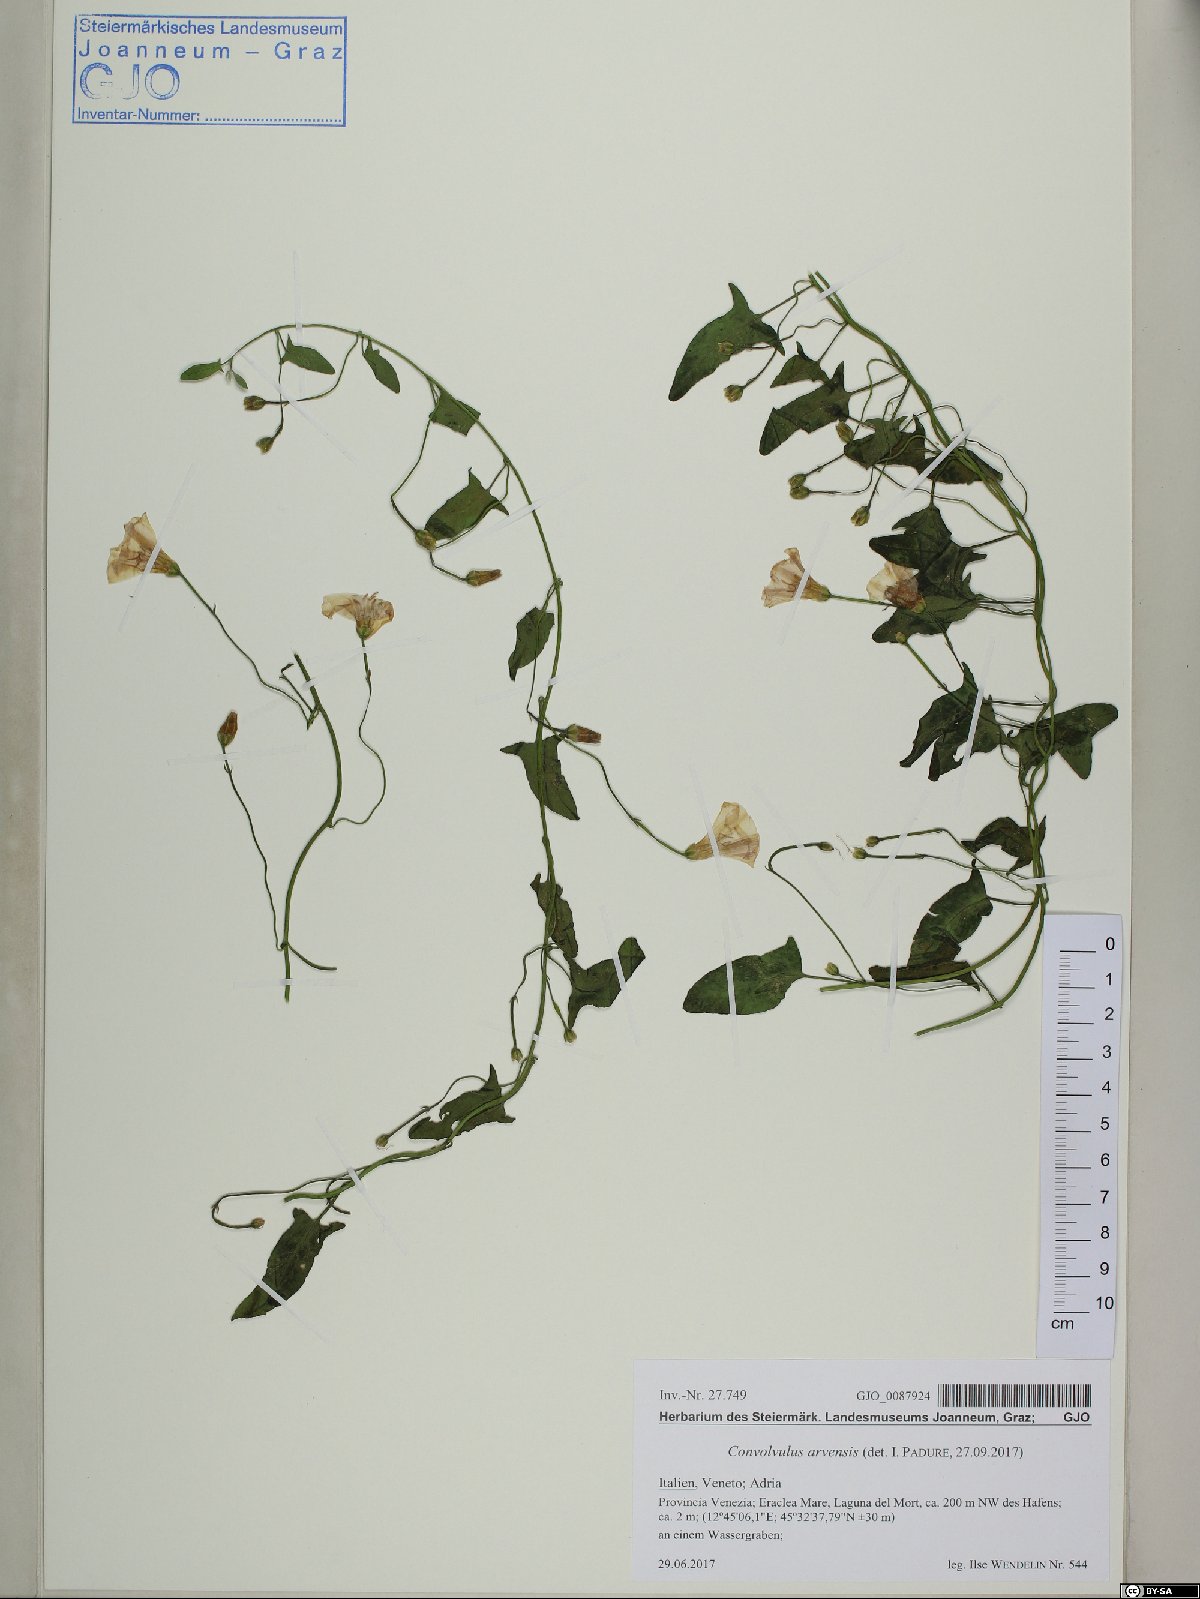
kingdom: Plantae
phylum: Tracheophyta
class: Magnoliopsida
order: Solanales
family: Convolvulaceae
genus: Convolvulus
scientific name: Convolvulus arvensis
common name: Field bindweed
